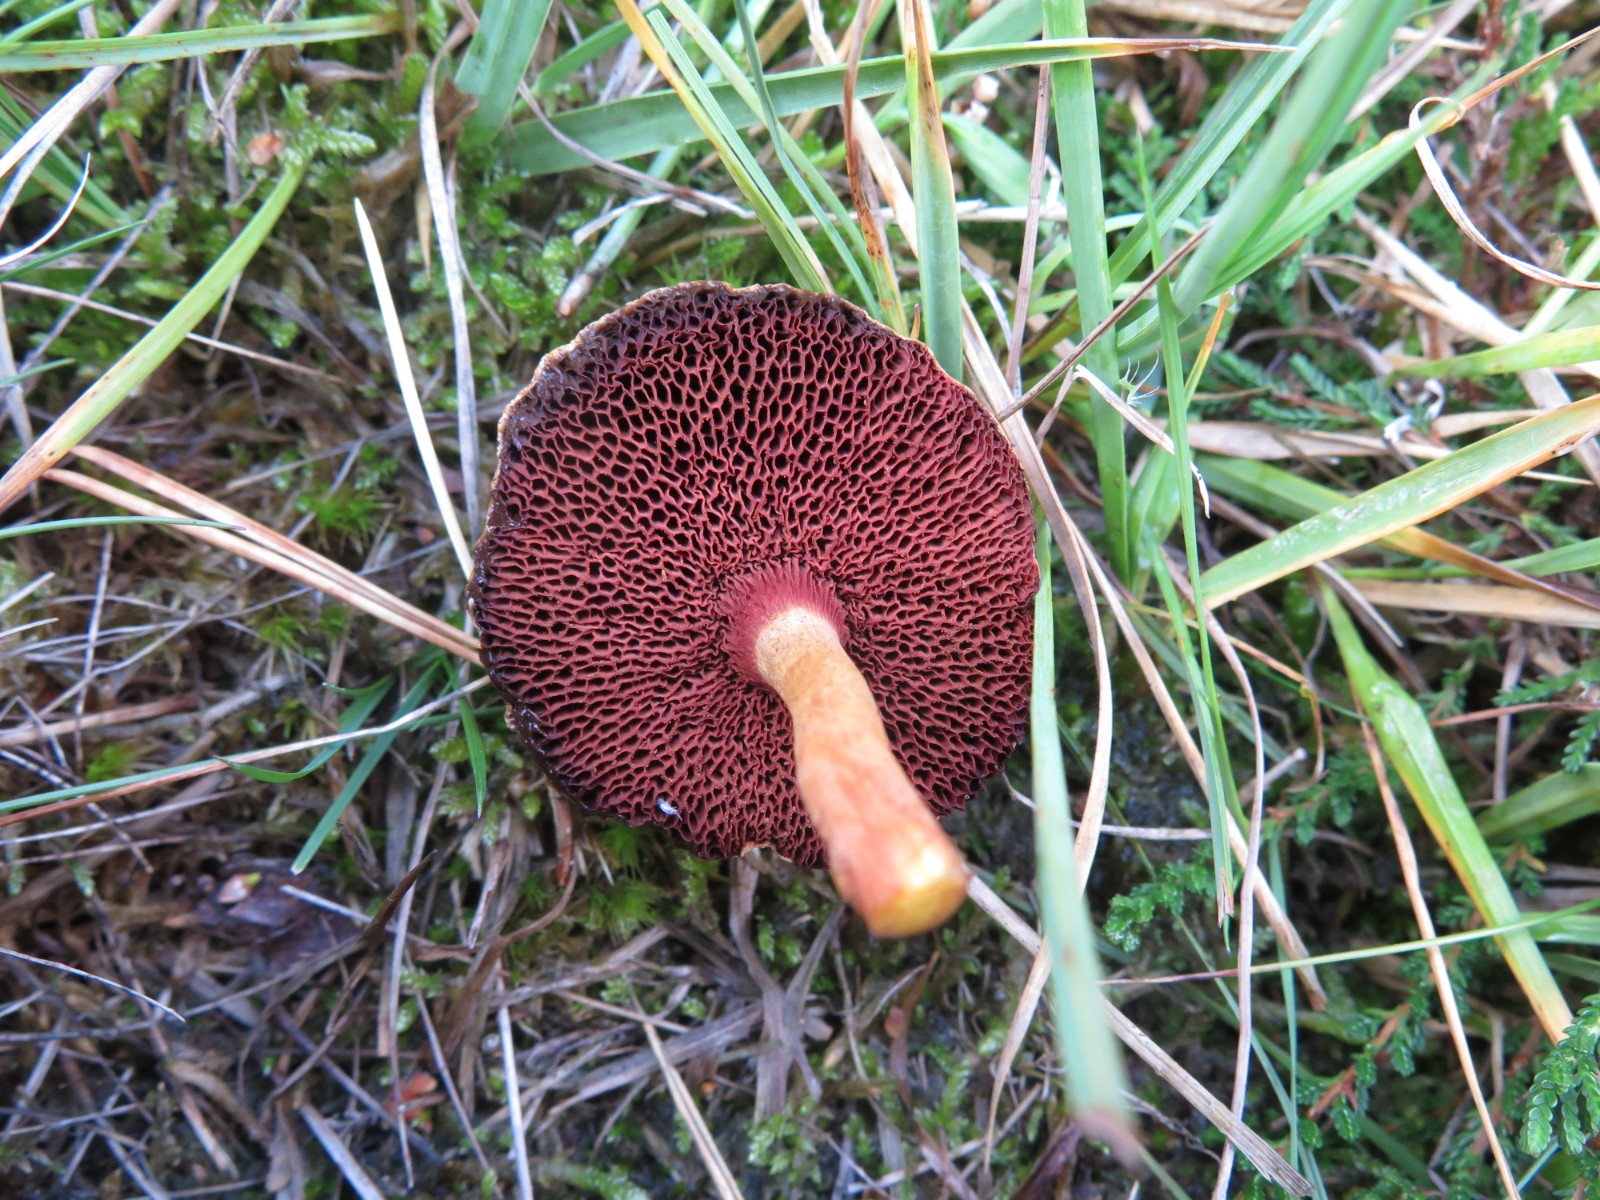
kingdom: Fungi
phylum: Basidiomycota
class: Agaricomycetes
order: Boletales
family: Boletaceae
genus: Chalciporus
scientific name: Chalciporus piperatus
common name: peberrørhat
